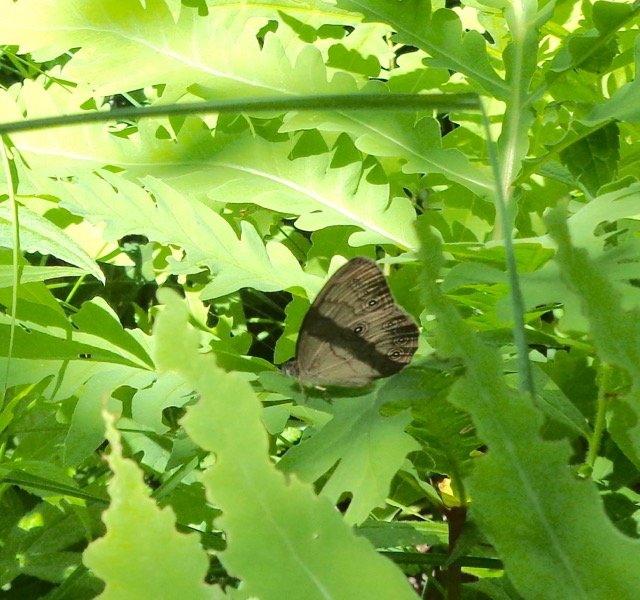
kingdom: Animalia
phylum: Arthropoda
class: Insecta
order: Lepidoptera
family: Nymphalidae
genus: Lethe
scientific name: Lethe eurydice
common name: Eyed Brown
